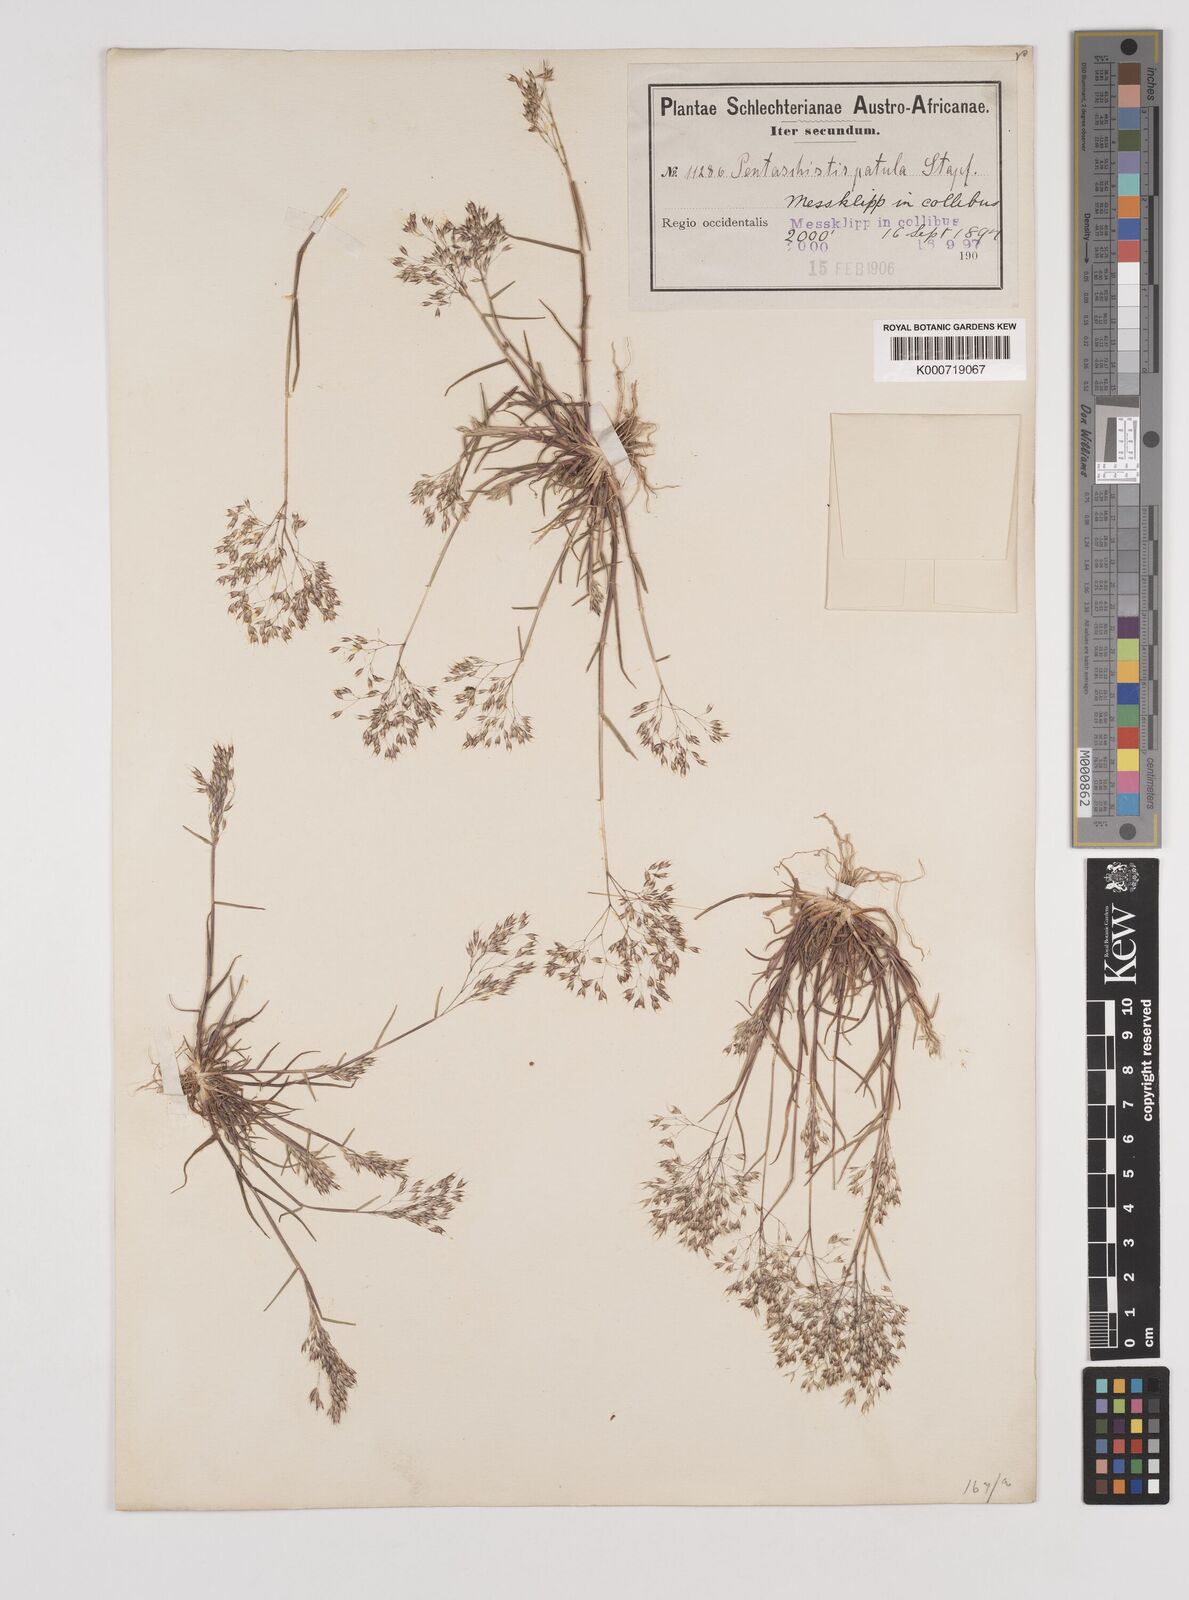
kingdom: Plantae
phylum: Tracheophyta
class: Liliopsida
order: Poales
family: Poaceae
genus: Pentameris
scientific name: Pentameris patula
